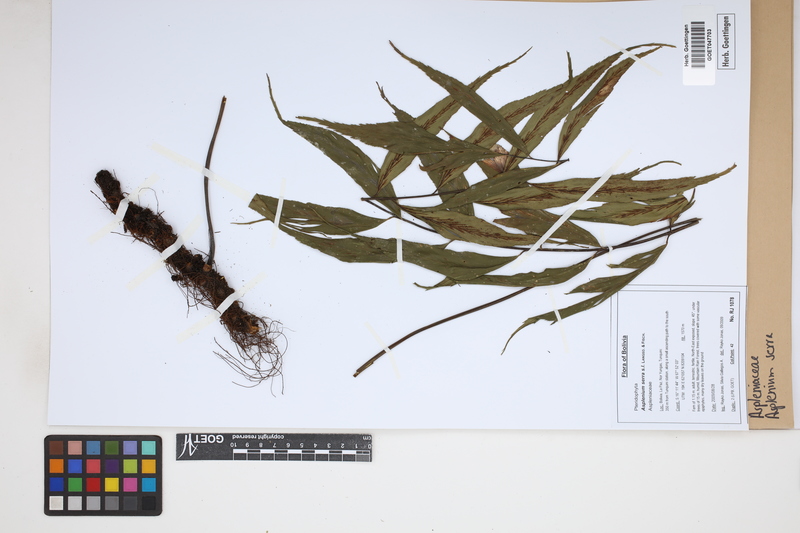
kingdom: Plantae
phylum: Tracheophyta
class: Polypodiopsida
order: Polypodiales
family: Aspleniaceae
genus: Asplenium
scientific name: Asplenium serra
